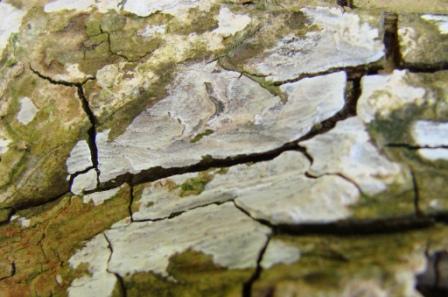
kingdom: Fungi
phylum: Basidiomycota
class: Agaricomycetes
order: Agaricales
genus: Dendrothele
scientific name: Dendrothele acerina
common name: navr-kalkplet
